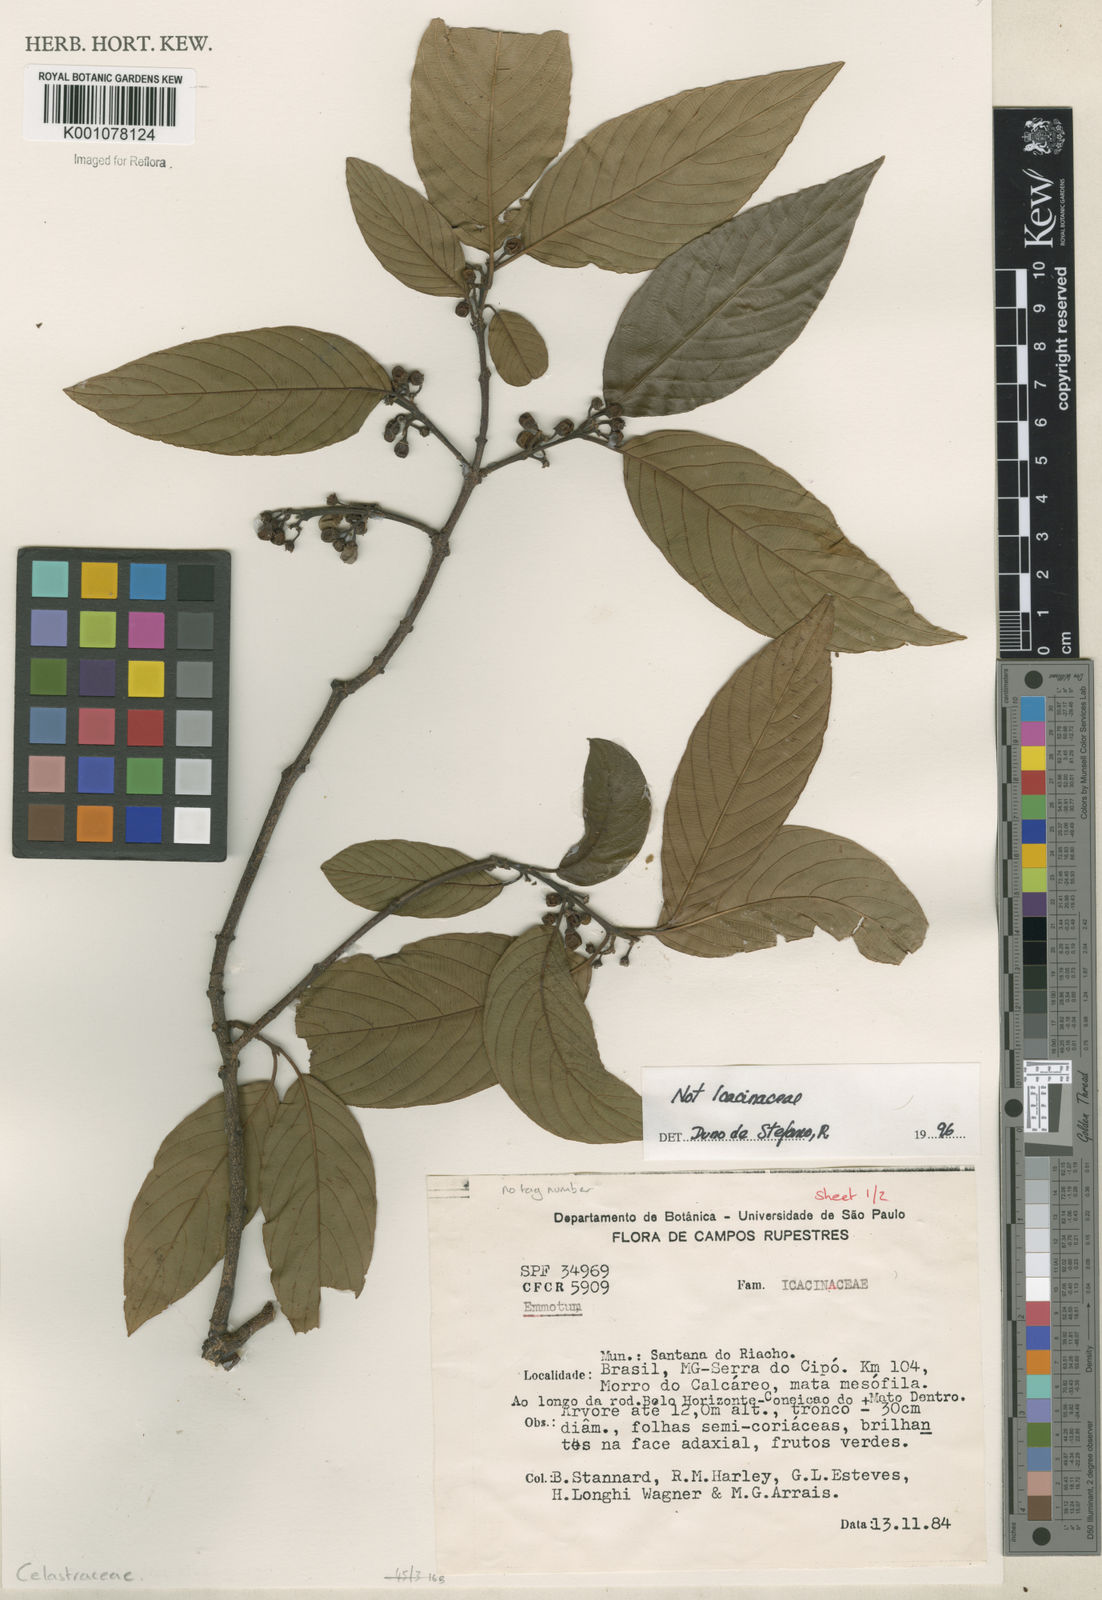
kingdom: Plantae
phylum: Tracheophyta
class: Magnoliopsida
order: Rosales
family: Rhamnaceae
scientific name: Rhamnaceae
